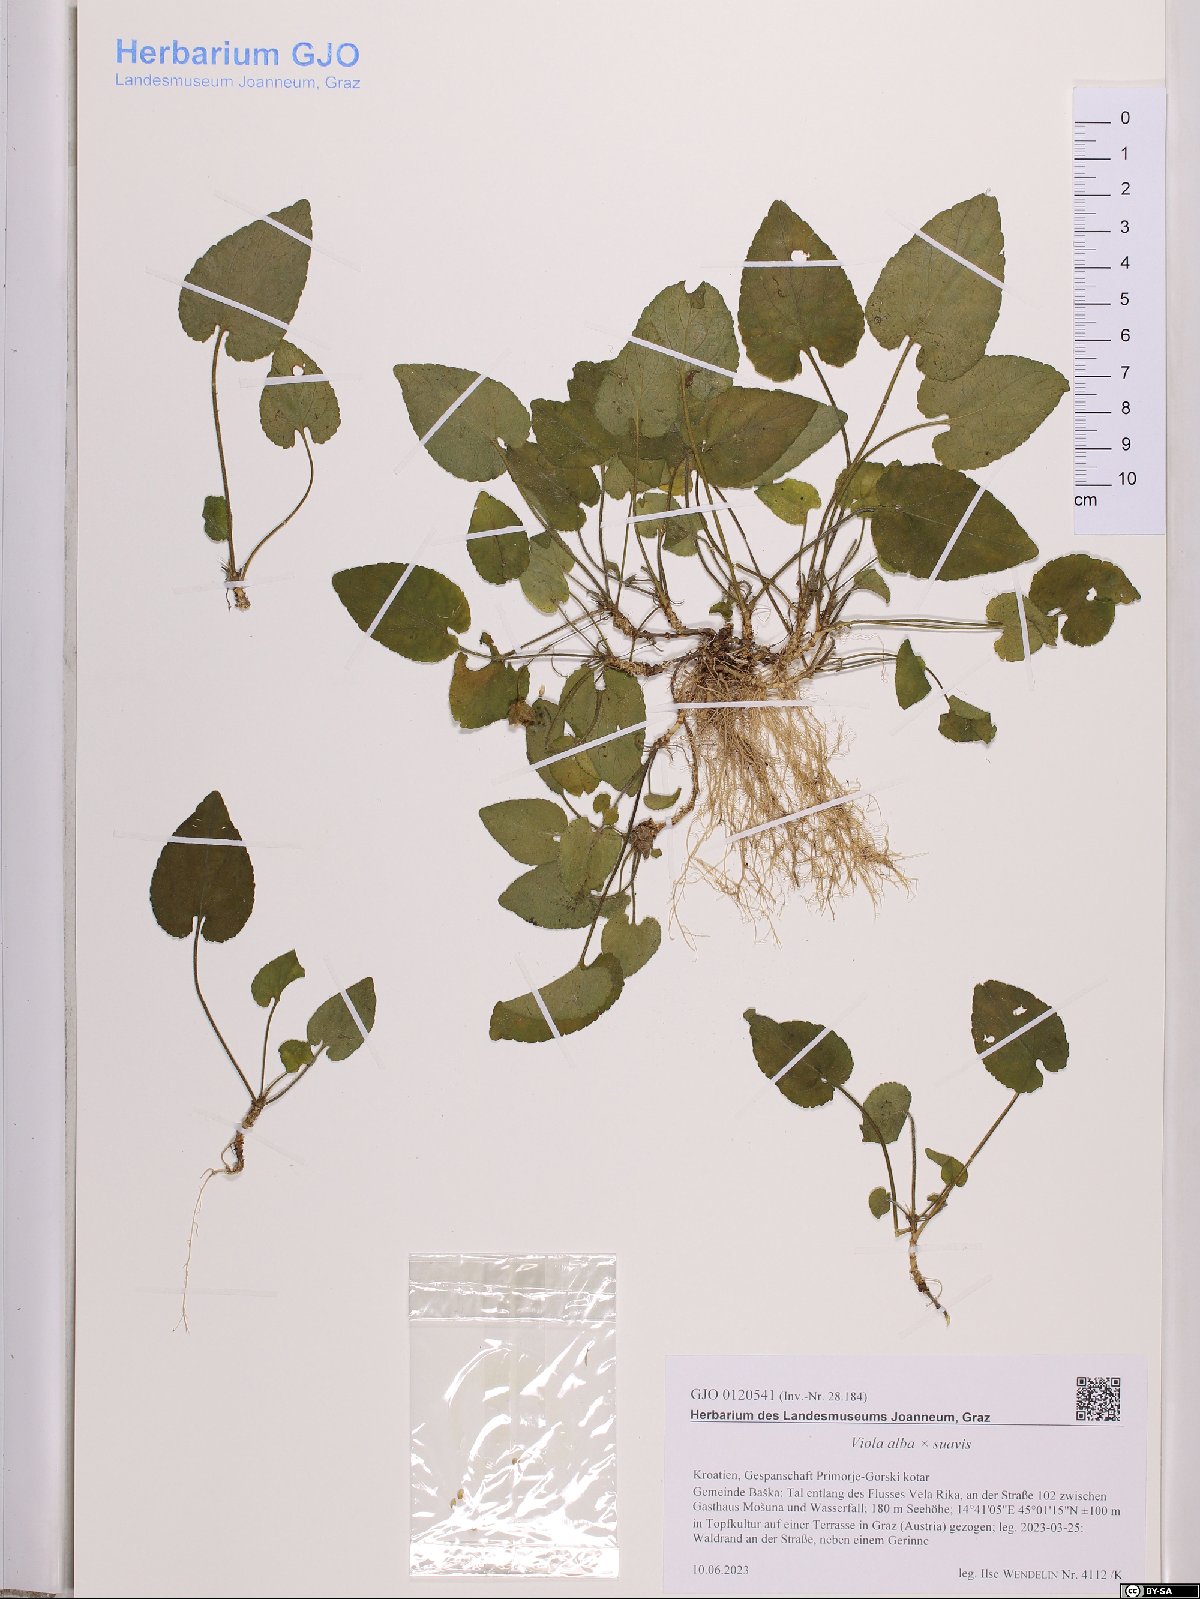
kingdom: Plantae
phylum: Tracheophyta
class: Magnoliopsida
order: Malpighiales
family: Violaceae
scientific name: Violaceae
